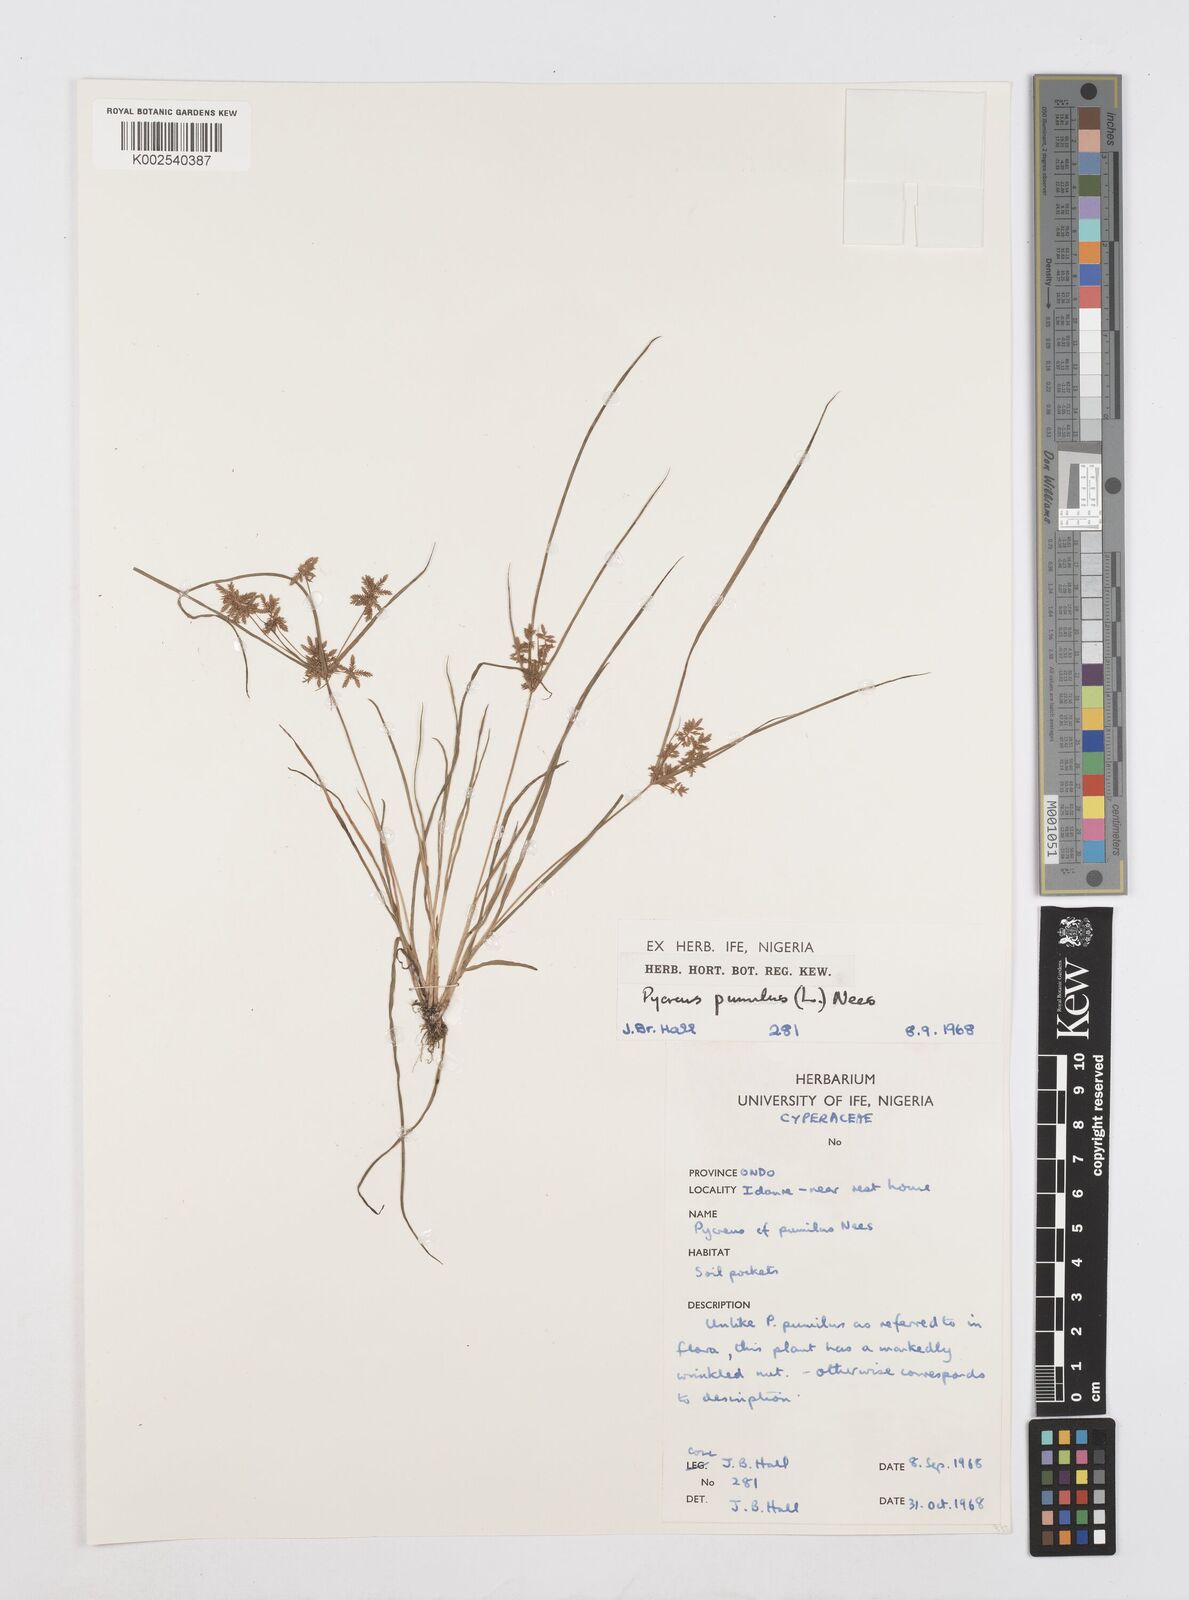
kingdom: Plantae
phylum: Tracheophyta
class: Liliopsida
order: Poales
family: Cyperaceae
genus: Cyperus
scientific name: Cyperus pumilus
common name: Low flatsedge
